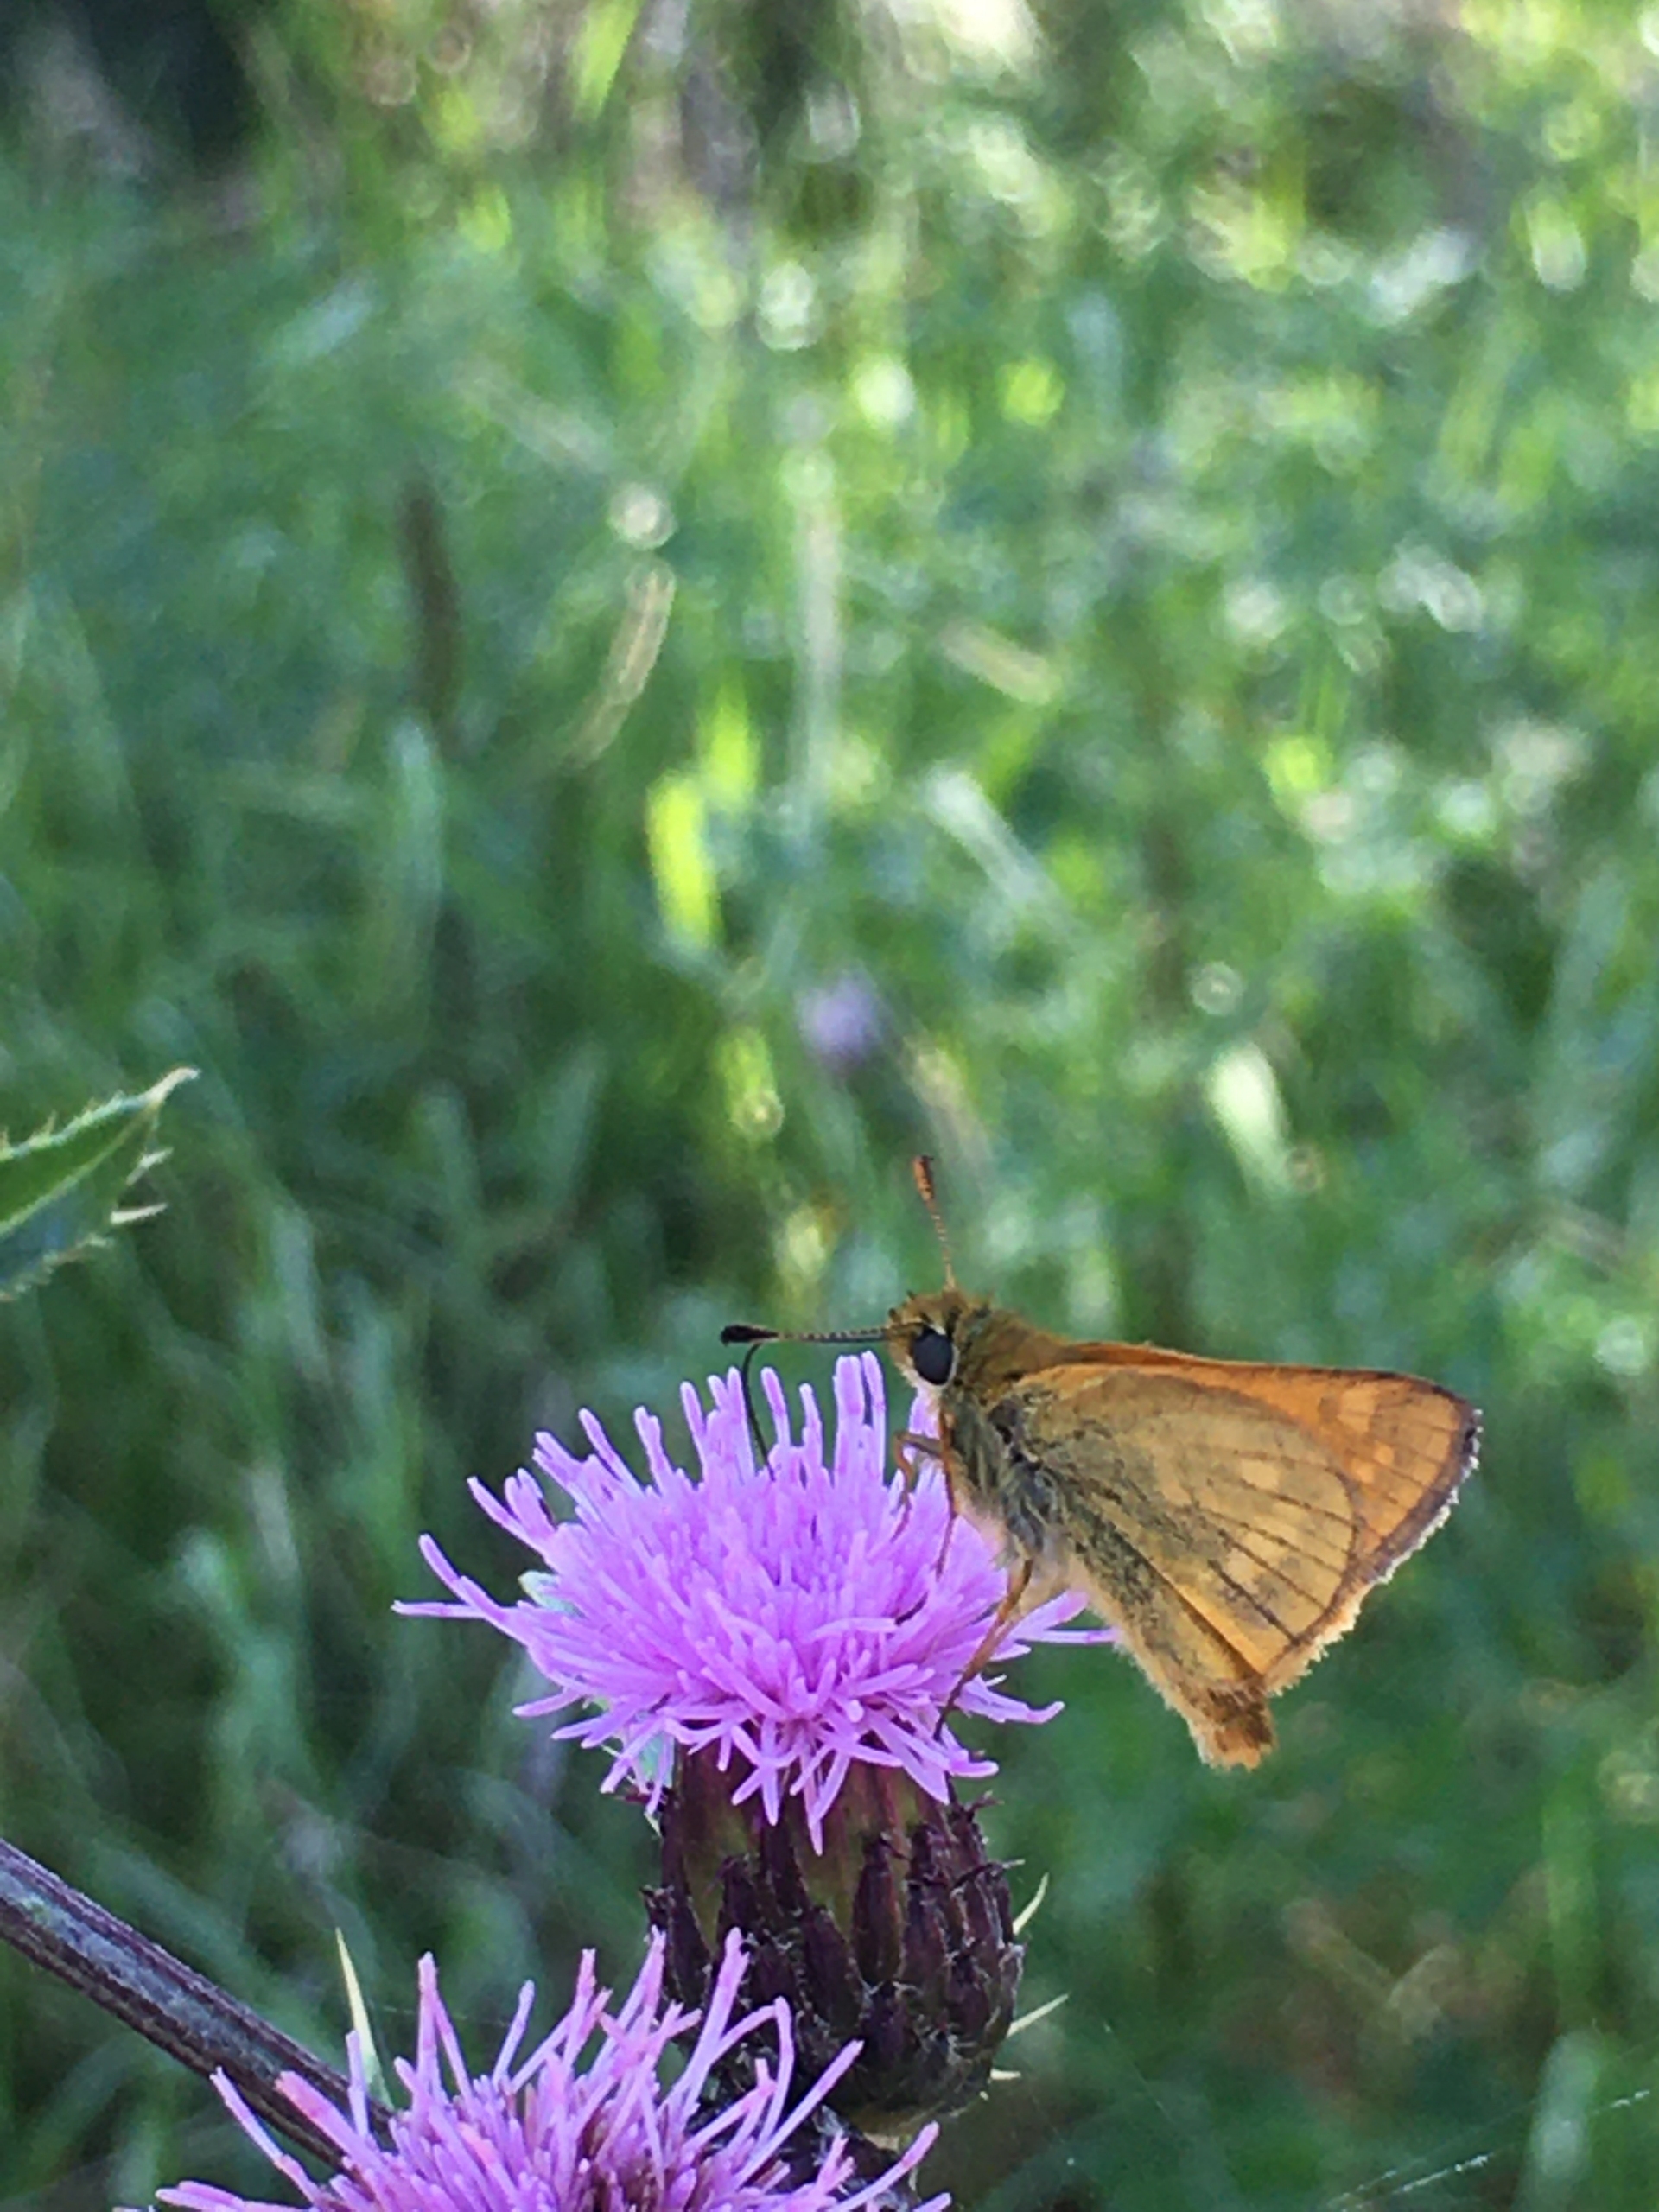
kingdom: Animalia
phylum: Arthropoda
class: Insecta
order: Lepidoptera
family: Hesperiidae
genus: Ochlodes
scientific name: Ochlodes venata
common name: Stor bredpande
